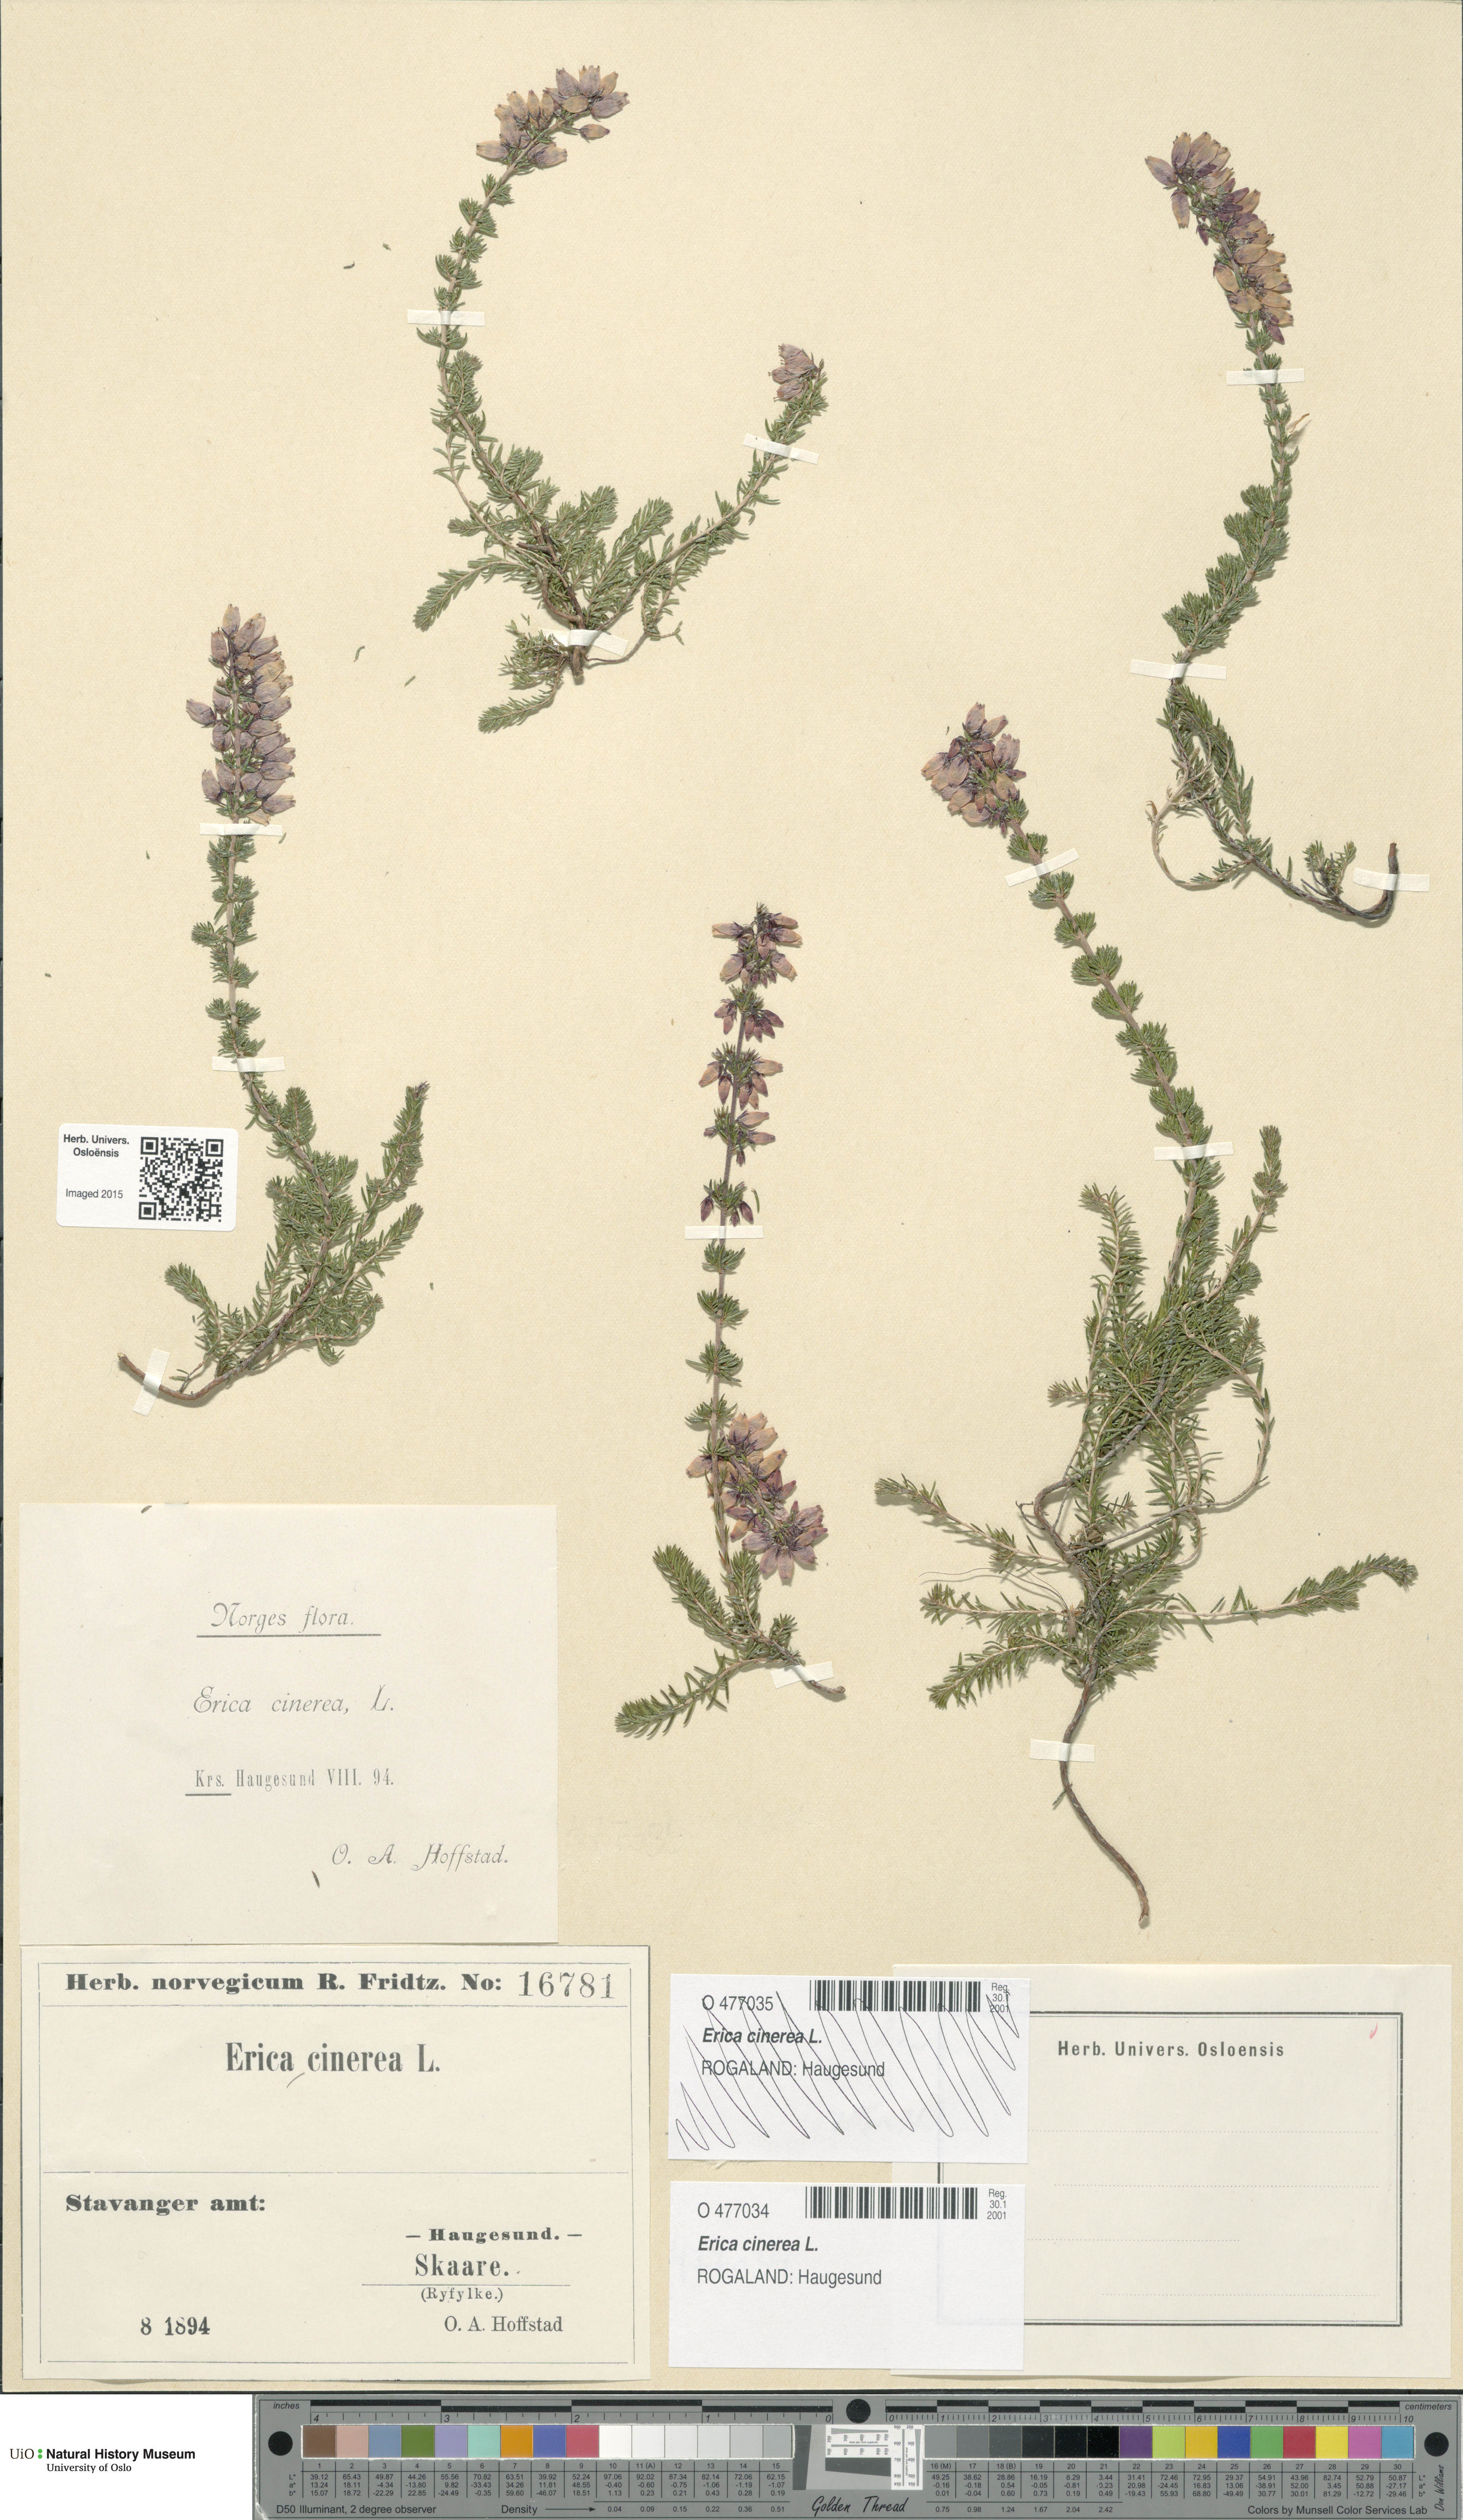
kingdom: Plantae
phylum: Tracheophyta
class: Magnoliopsida
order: Ericales
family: Ericaceae
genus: Erica
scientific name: Erica cinerea
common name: Bell heather
